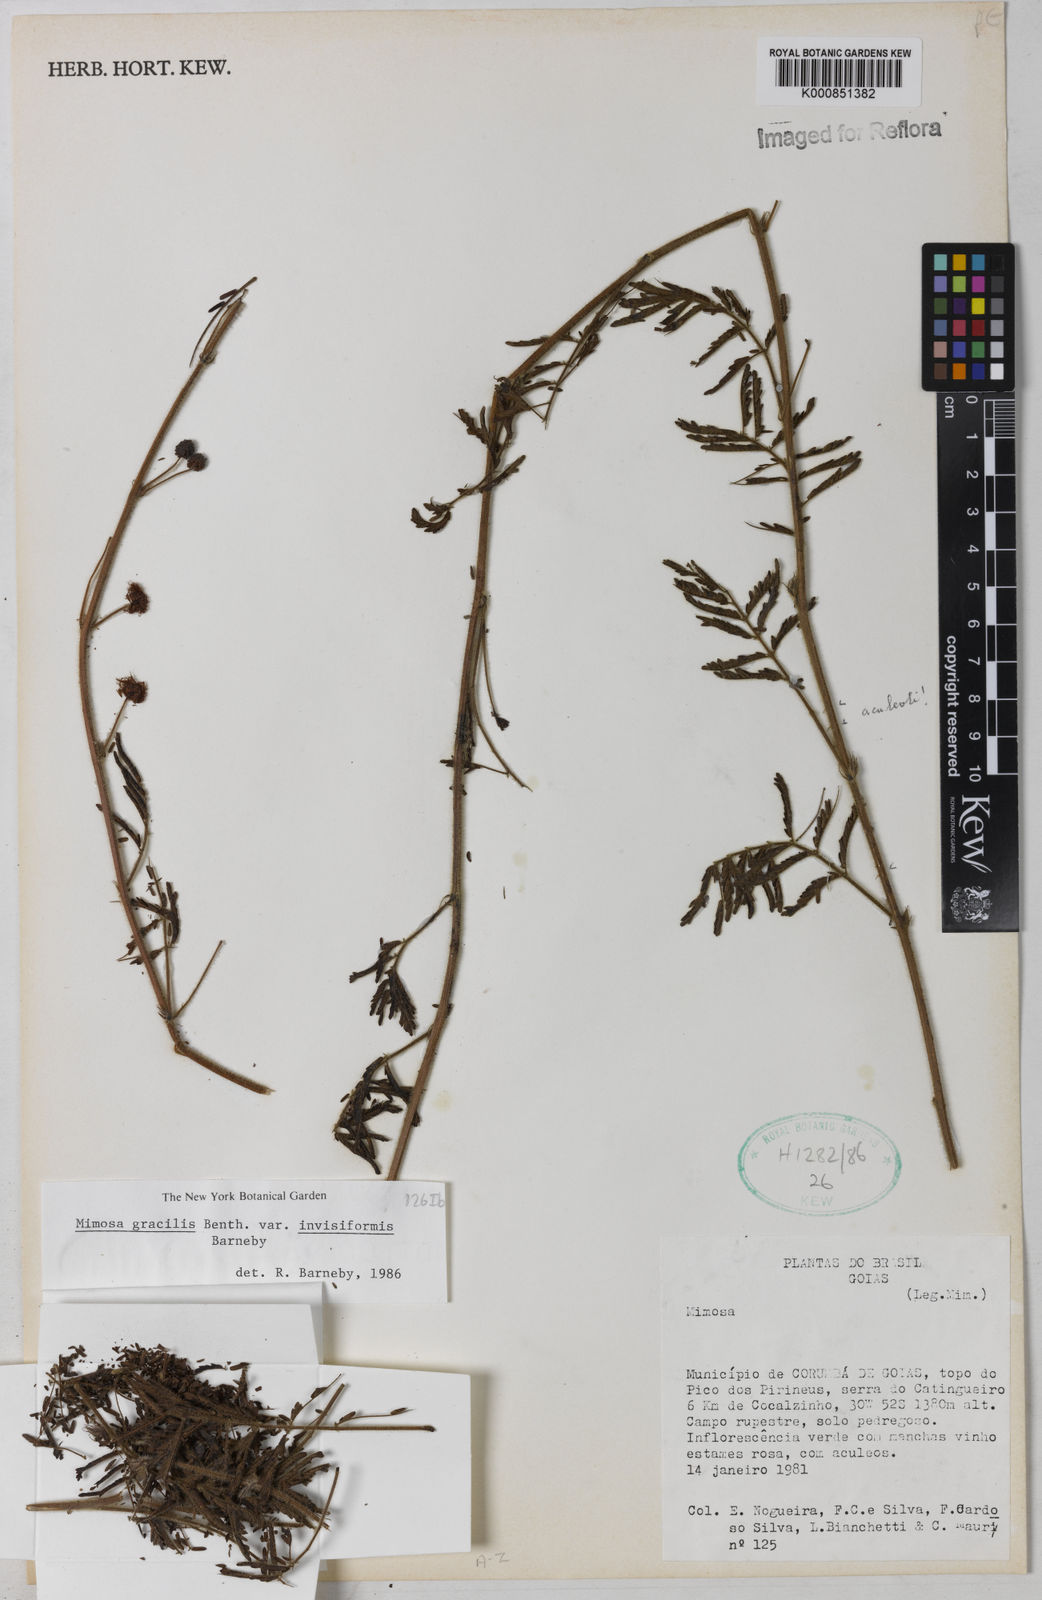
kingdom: Plantae
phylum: Tracheophyta
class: Magnoliopsida
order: Fabales
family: Fabaceae
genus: Mimosa
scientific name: Mimosa gracilis
